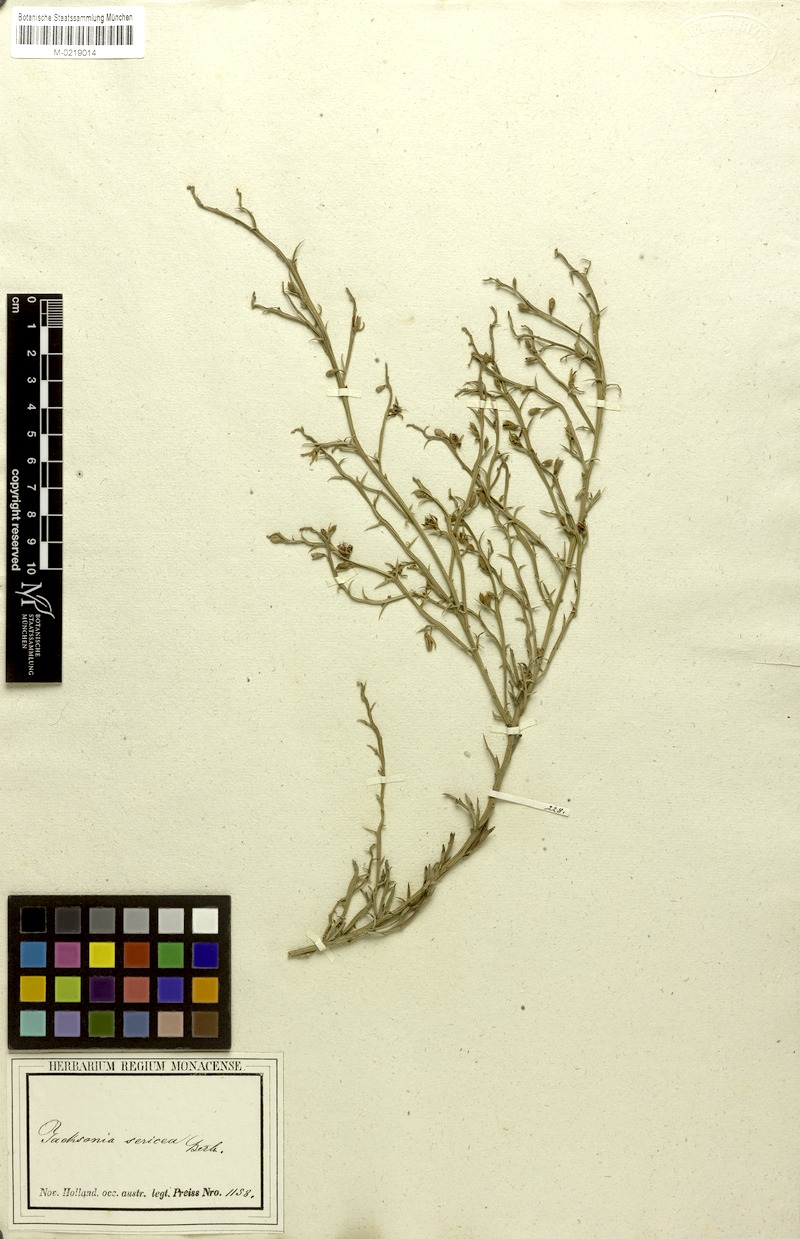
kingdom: Plantae
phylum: Tracheophyta
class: Magnoliopsida
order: Fabales
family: Fabaceae
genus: Jacksonia
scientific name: Jacksonia sericea
